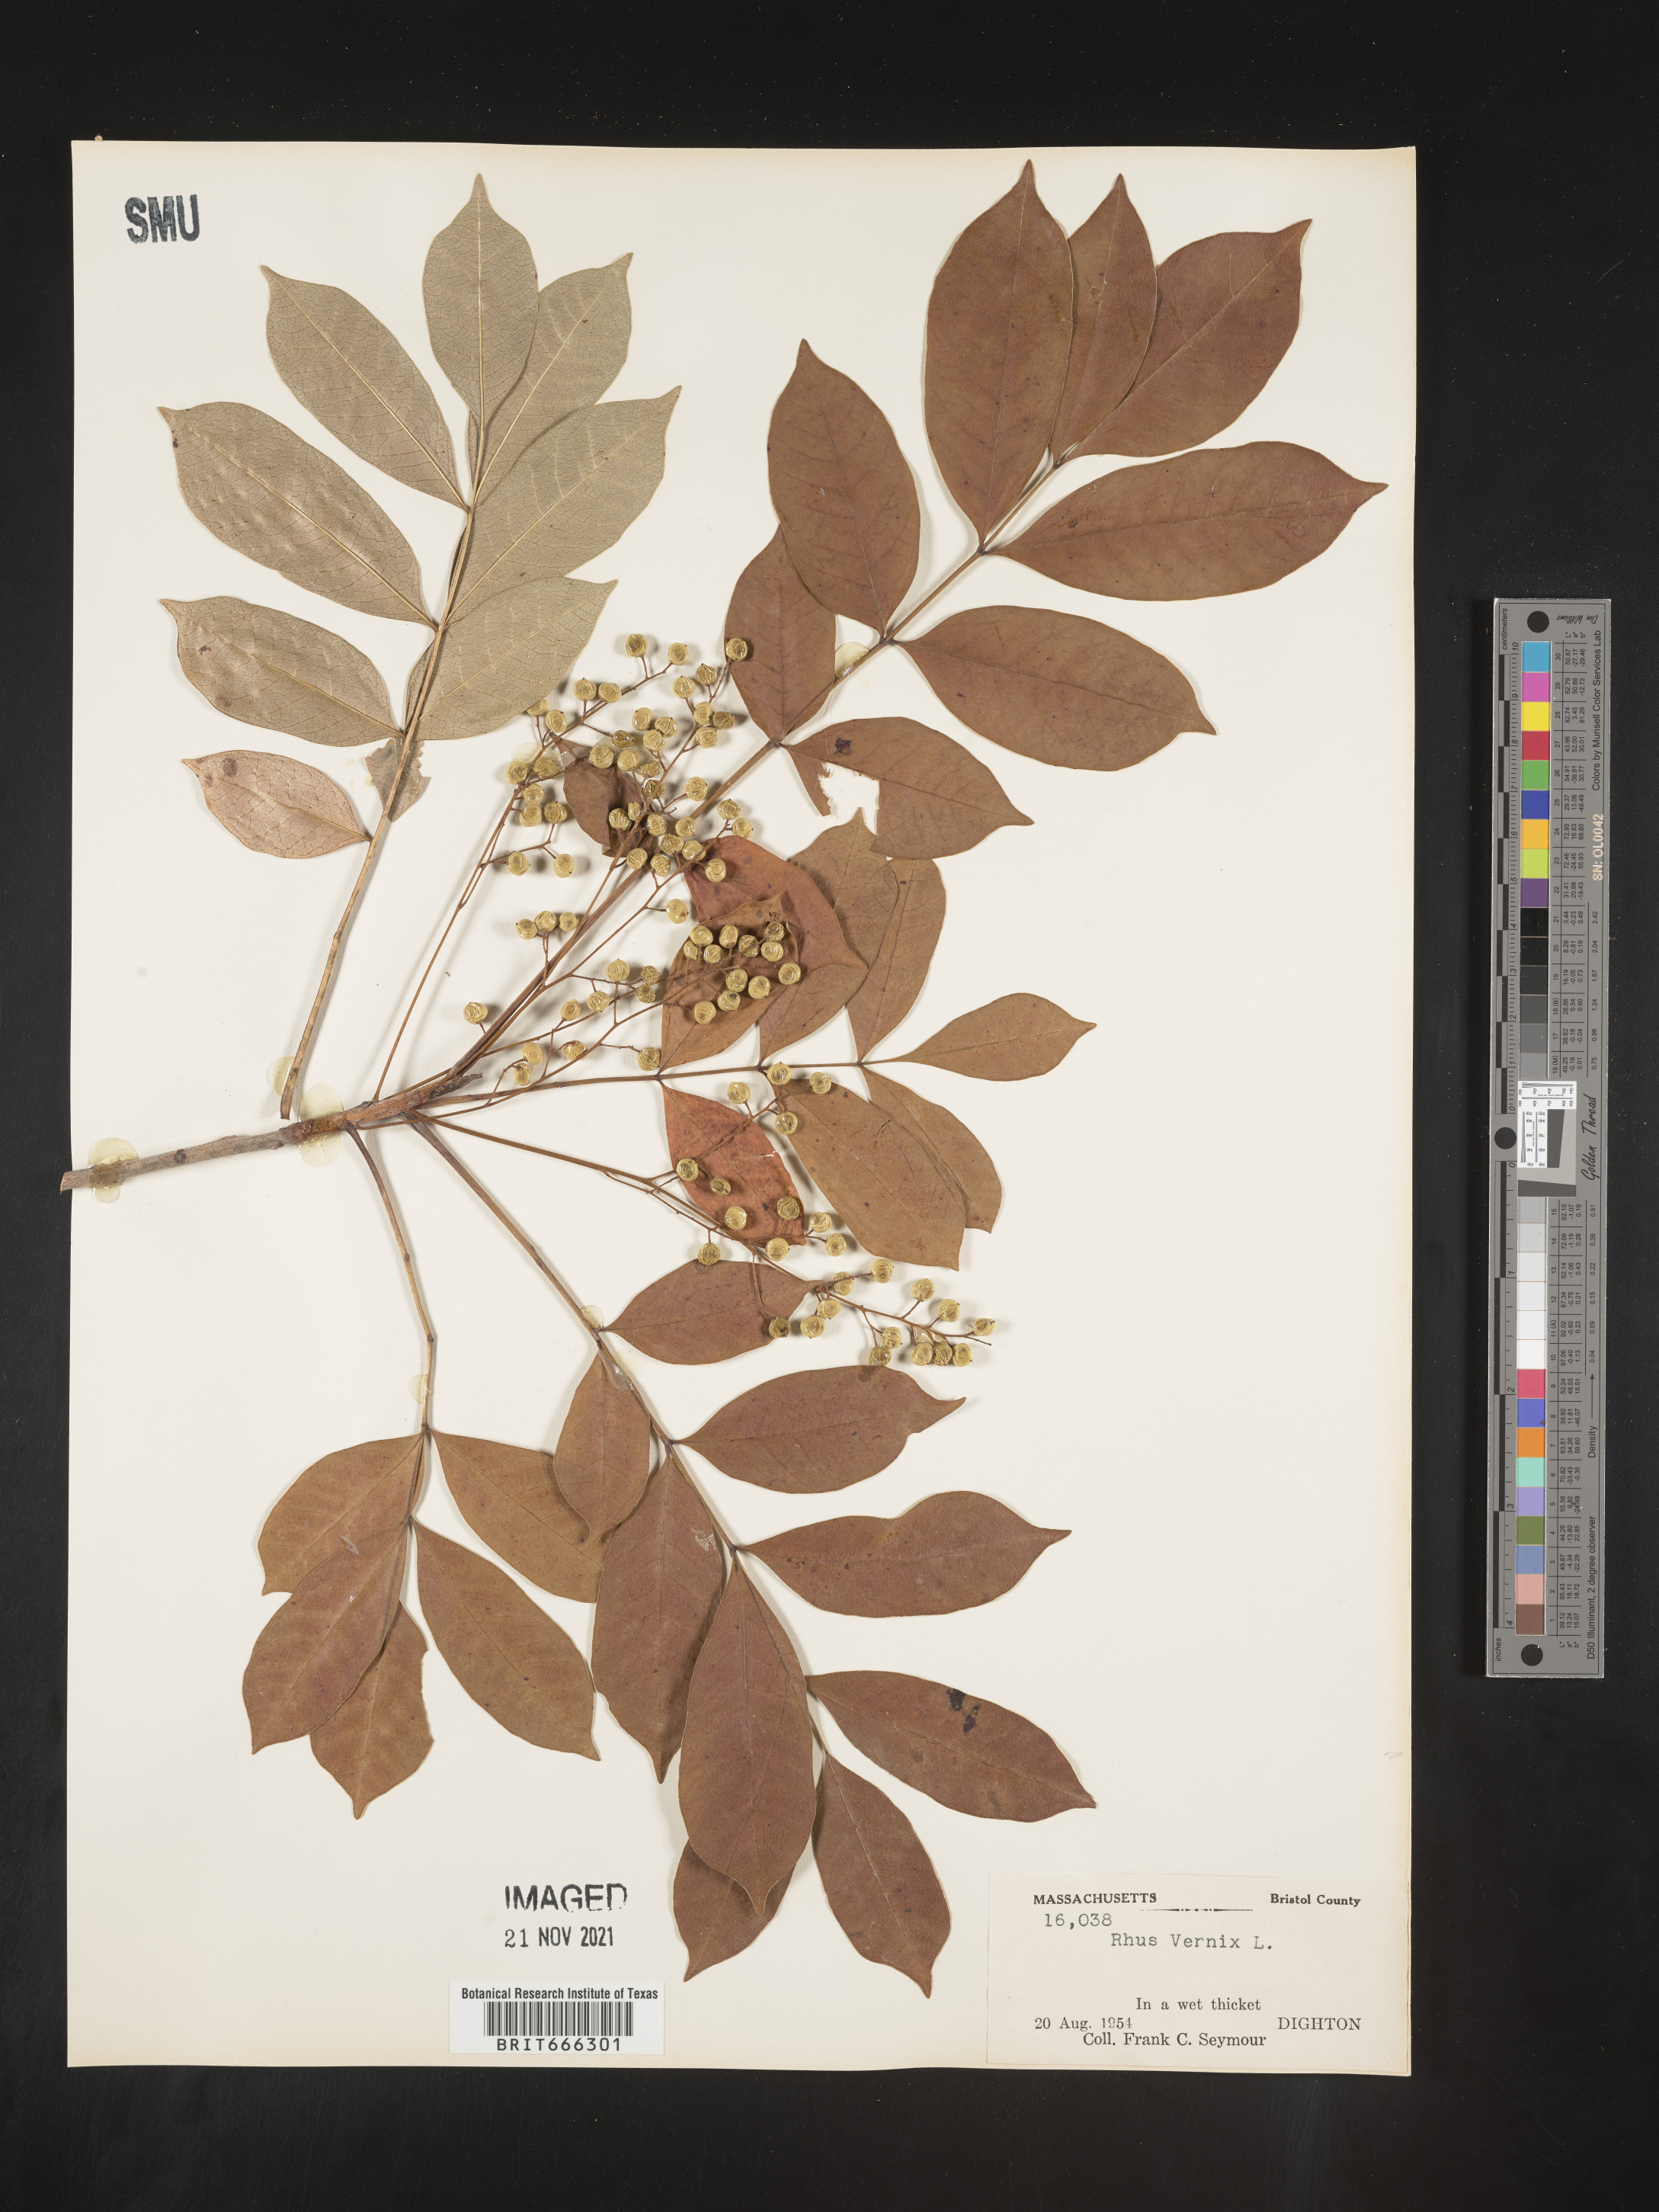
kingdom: Plantae
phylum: Tracheophyta
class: Magnoliopsida
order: Sapindales
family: Anacardiaceae
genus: Toxicodendron
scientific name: Toxicodendron vernix
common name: Poison sumac
